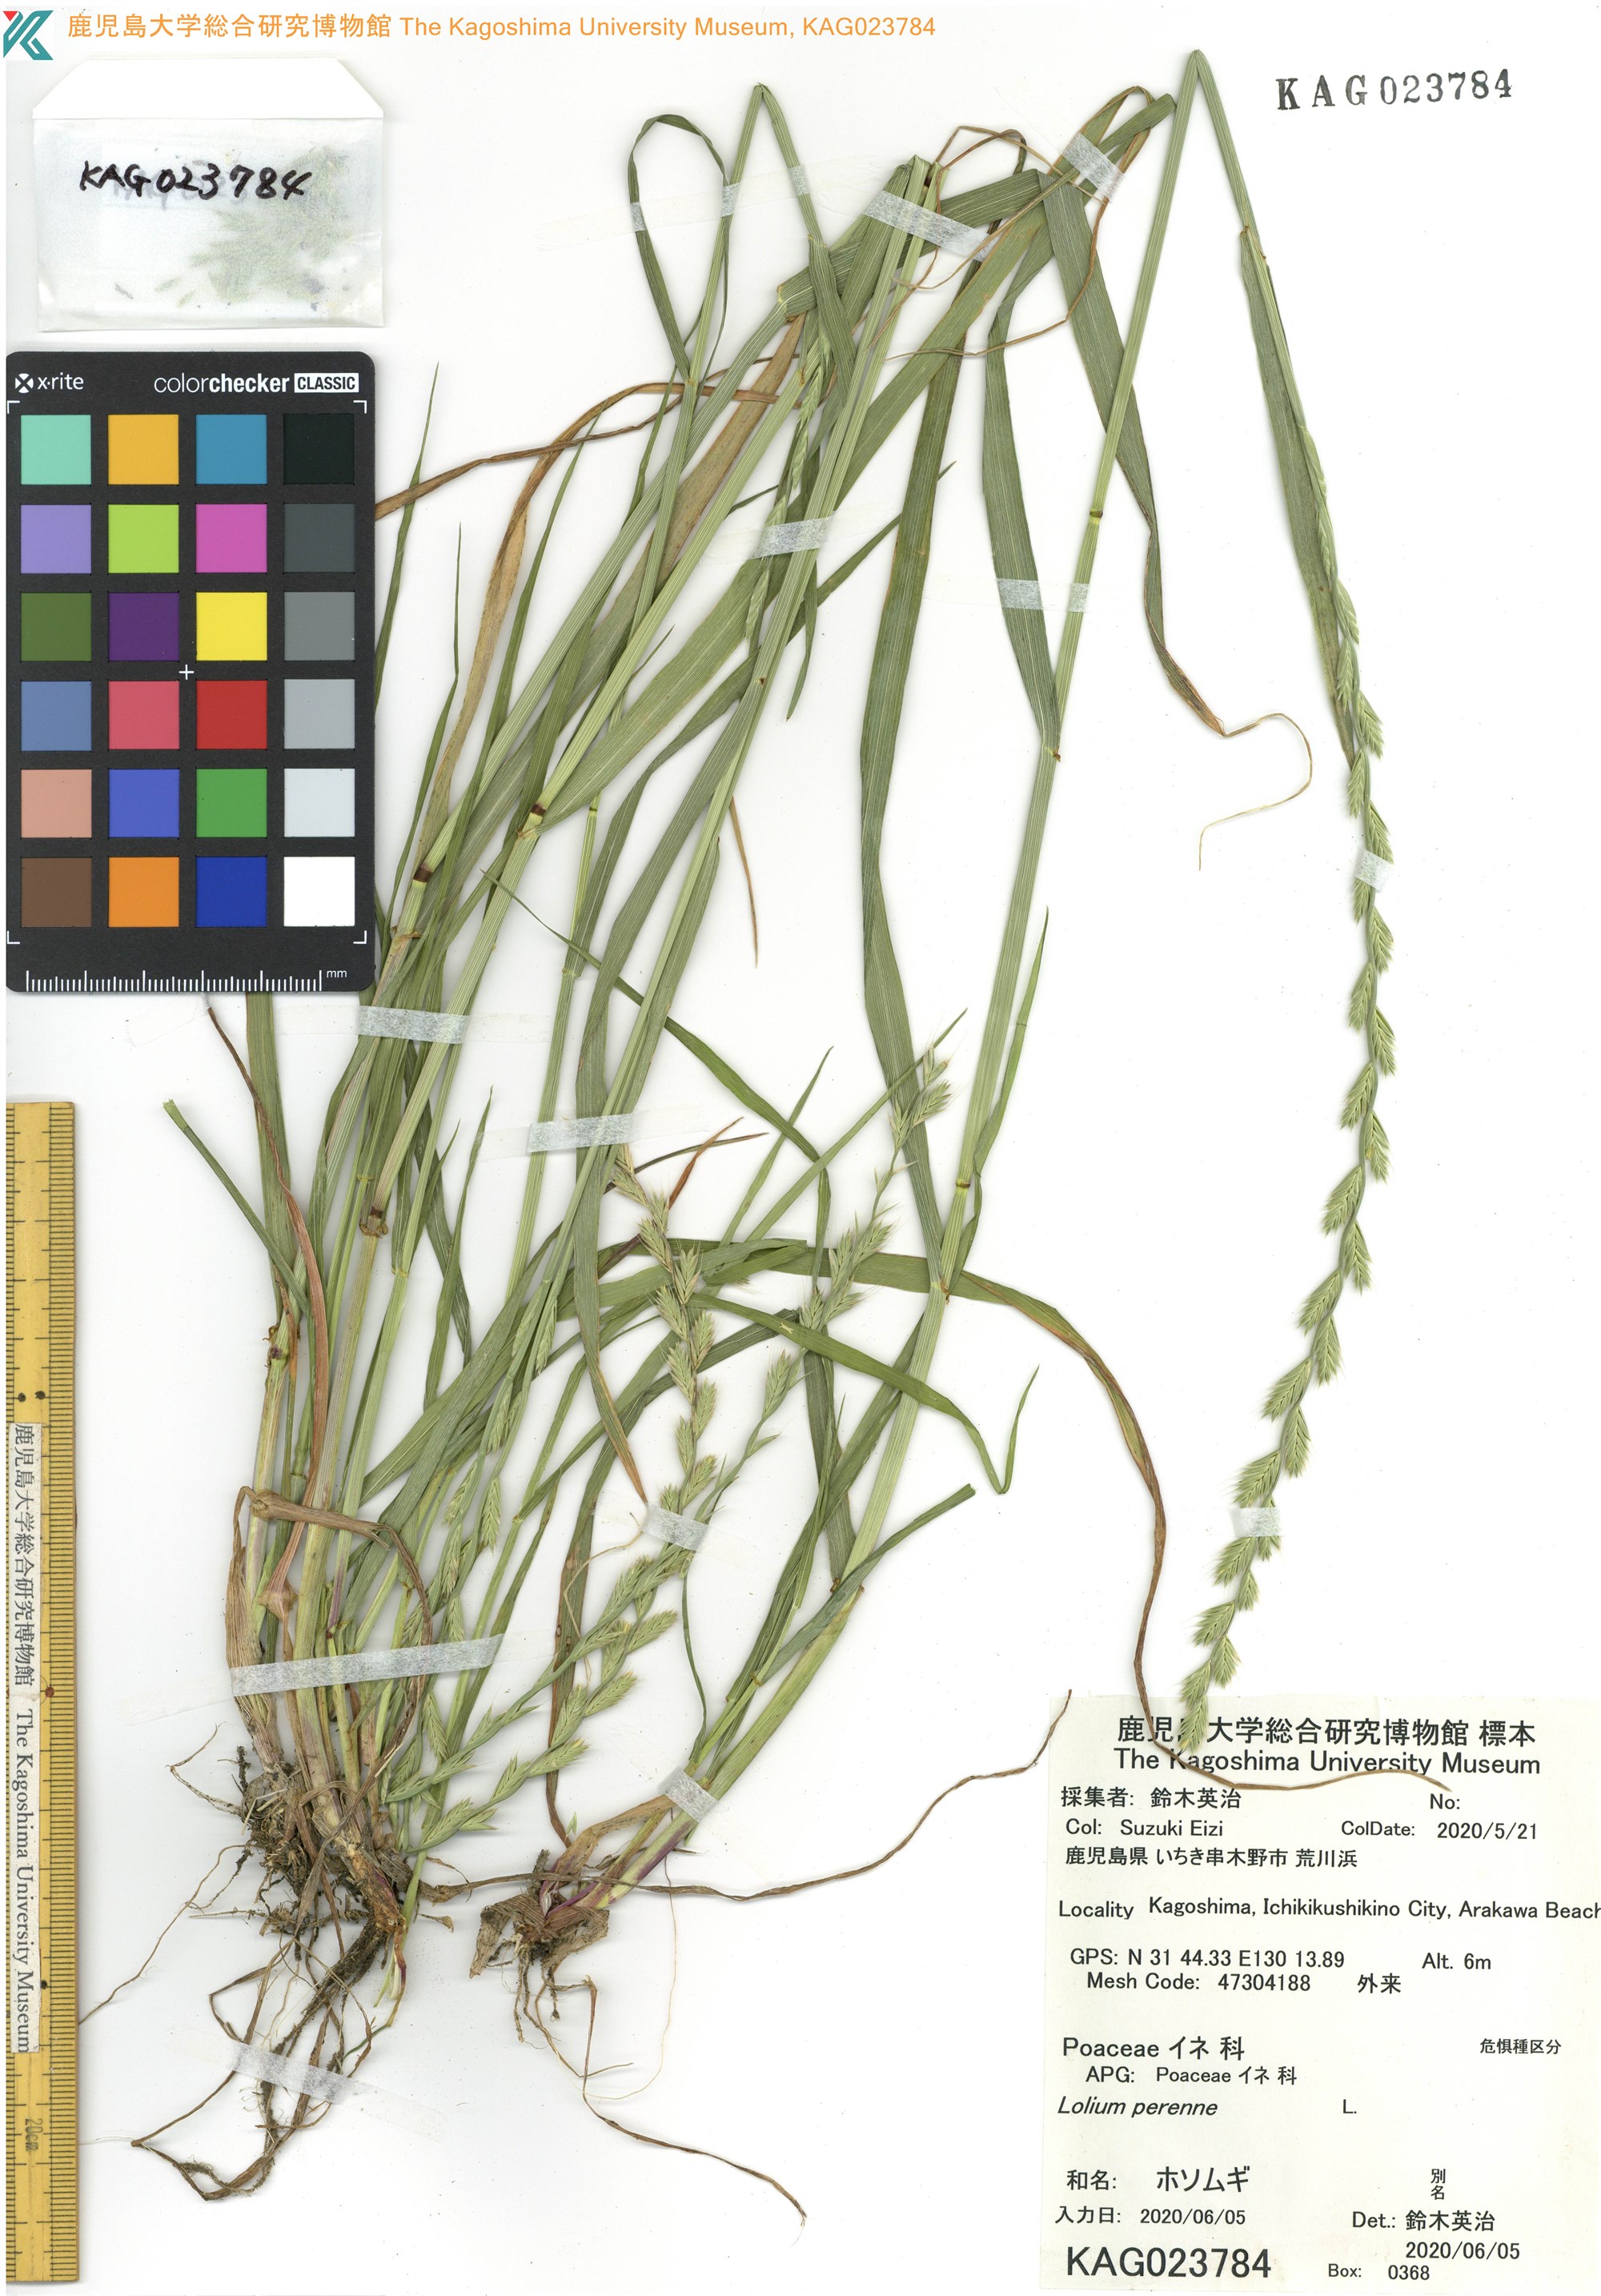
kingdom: Plantae
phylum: Tracheophyta
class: Liliopsida
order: Poales
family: Poaceae
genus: Lolium
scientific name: Lolium multiflorum
